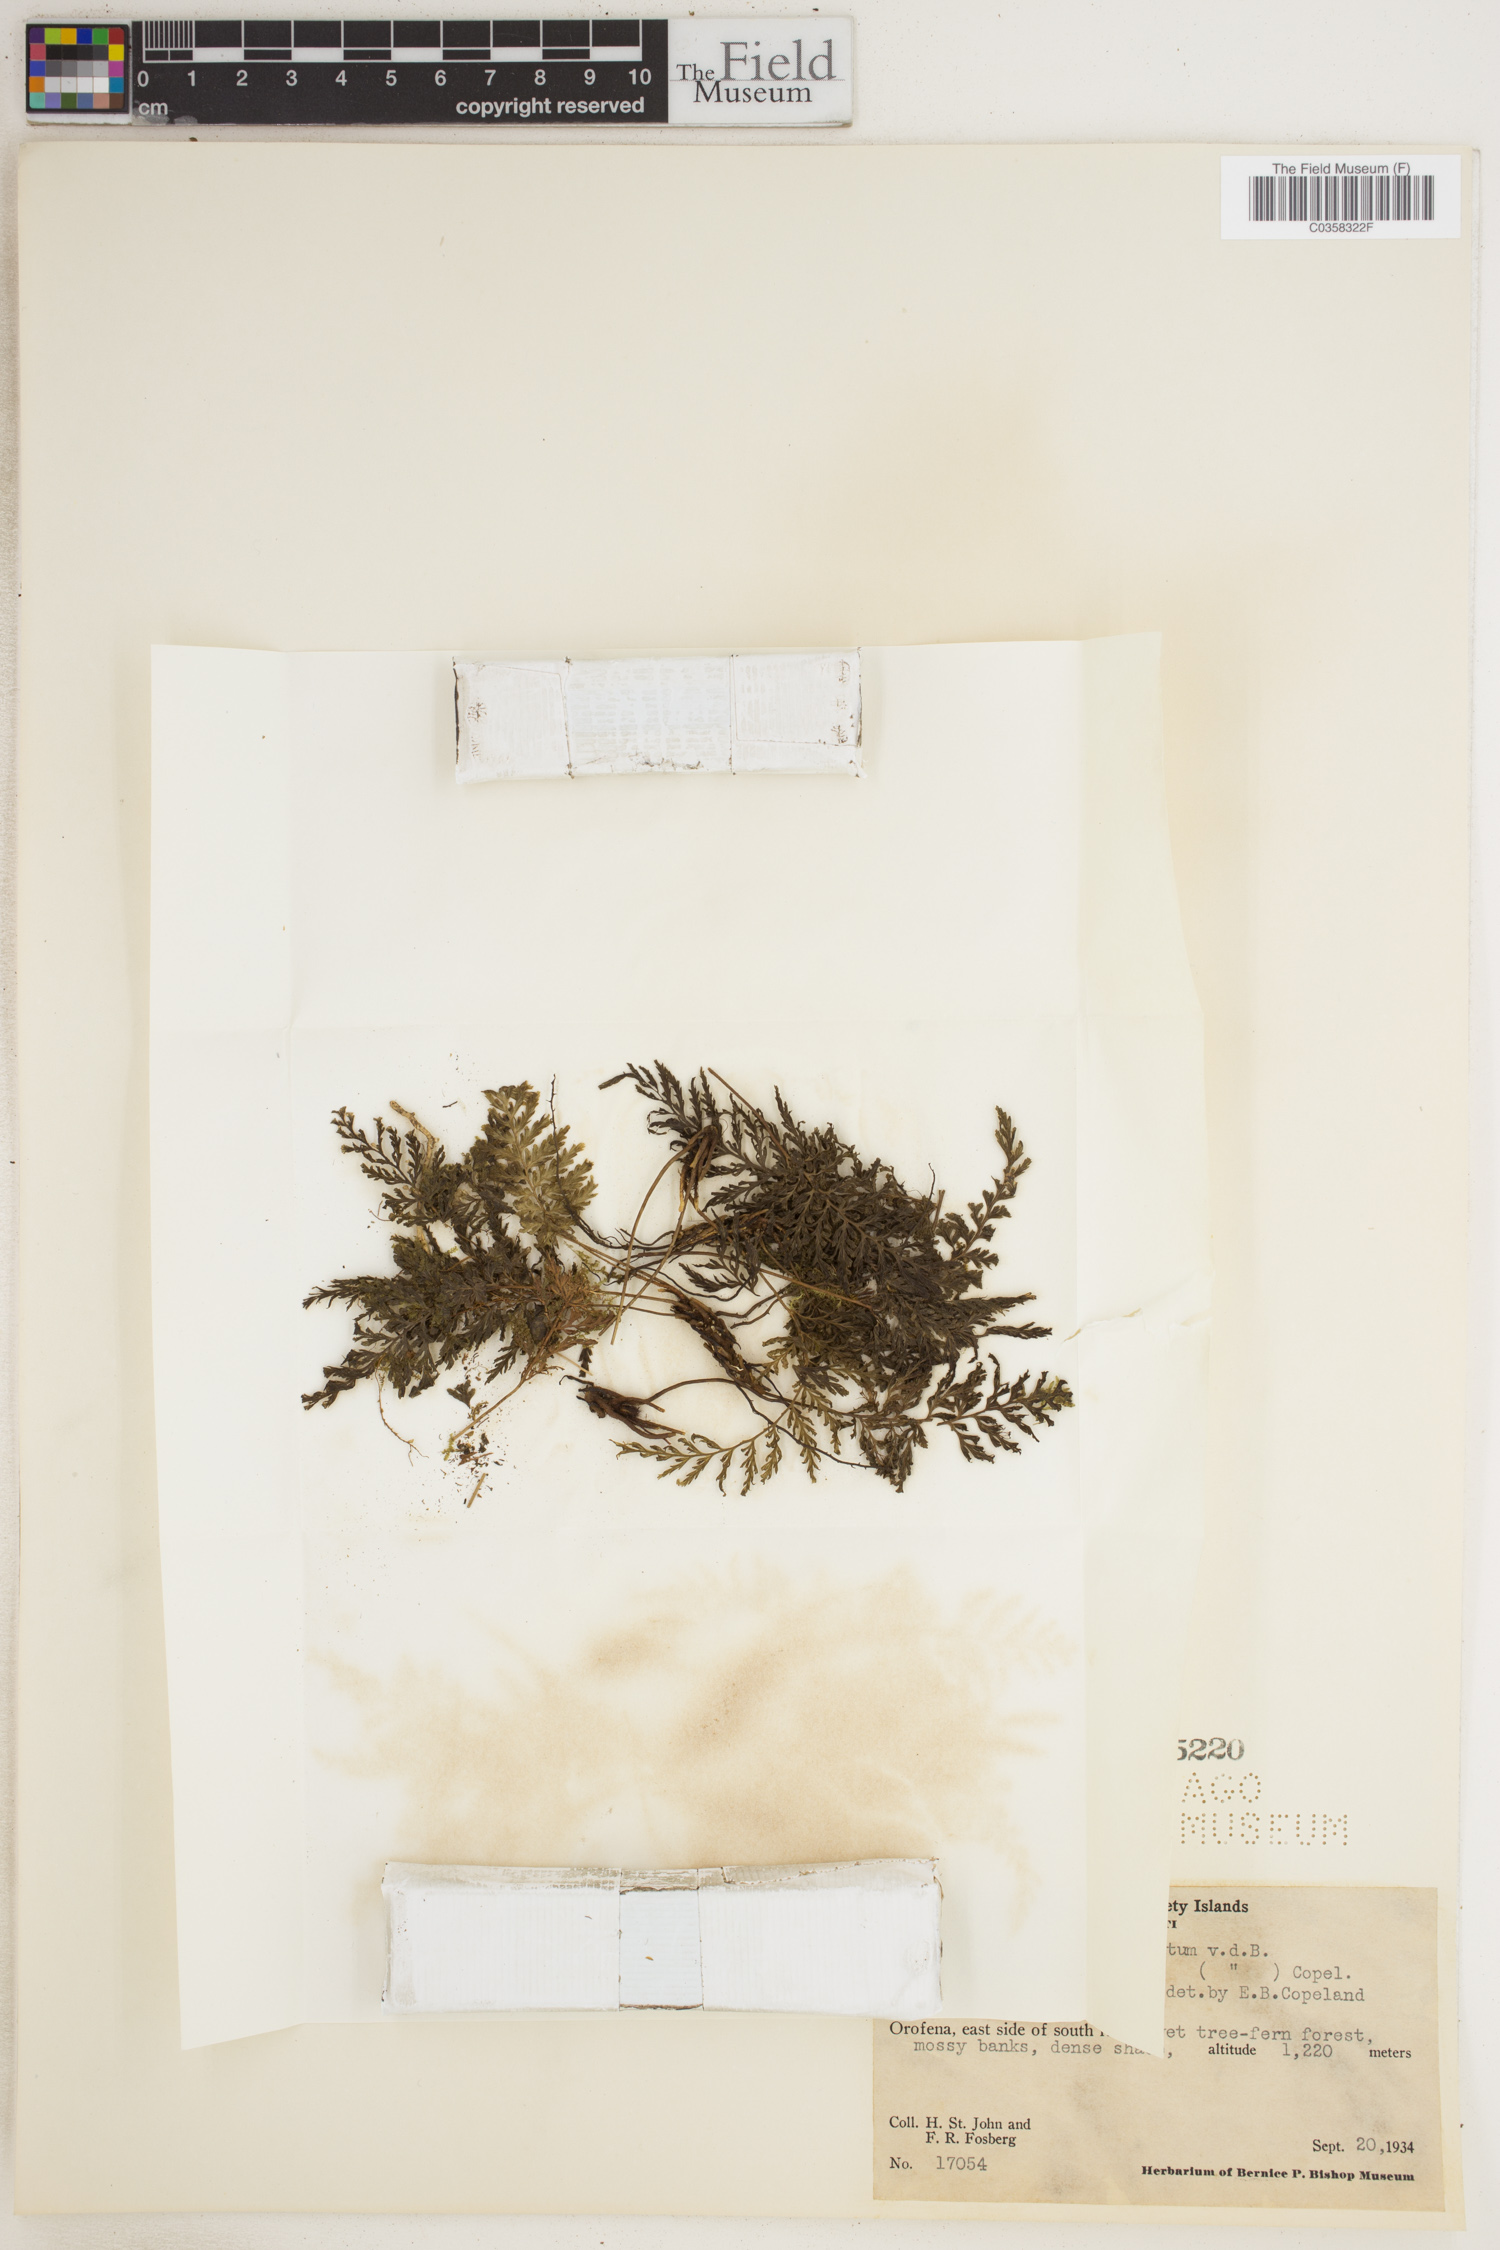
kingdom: Plantae
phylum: Tracheophyta
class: Polypodiopsida
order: Hymenophyllales
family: Hymenophyllaceae
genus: Abrodictyum
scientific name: Abrodictyum dentatum
